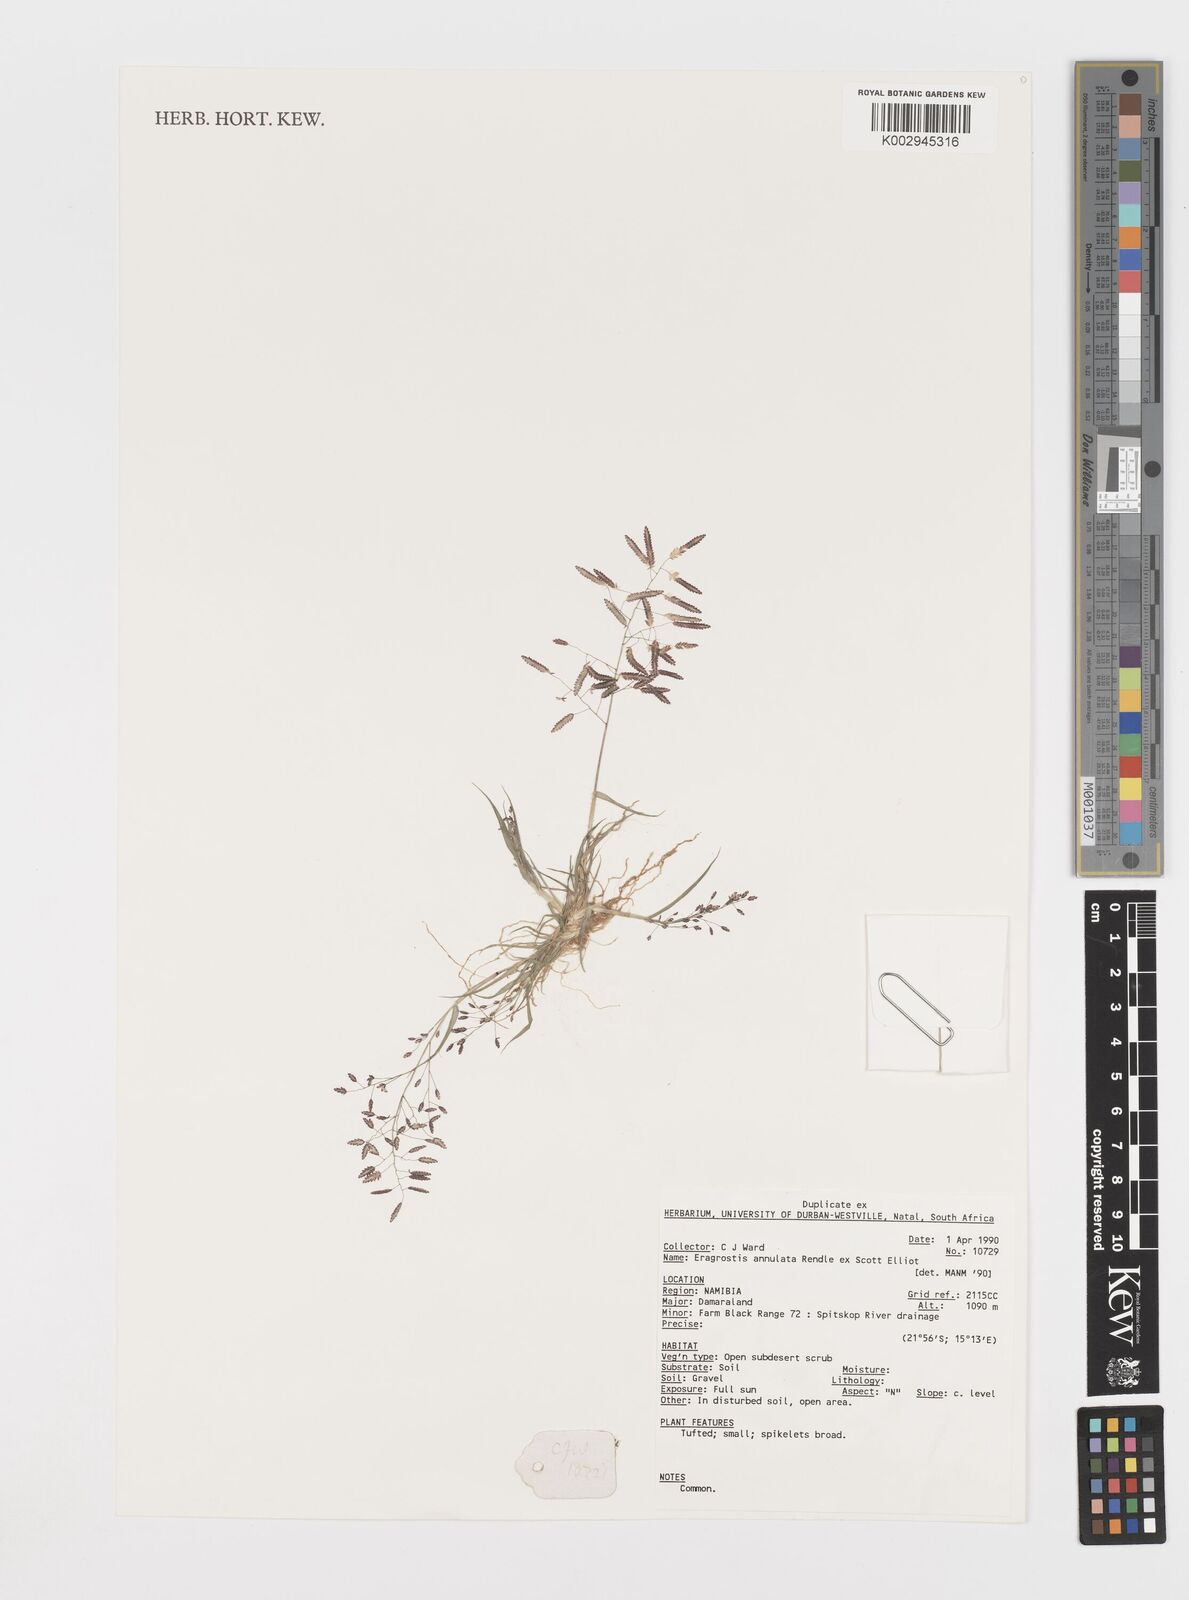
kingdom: Plantae
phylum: Tracheophyta
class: Liliopsida
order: Poales
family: Poaceae
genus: Eragrostis
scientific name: Eragrostis annulata
